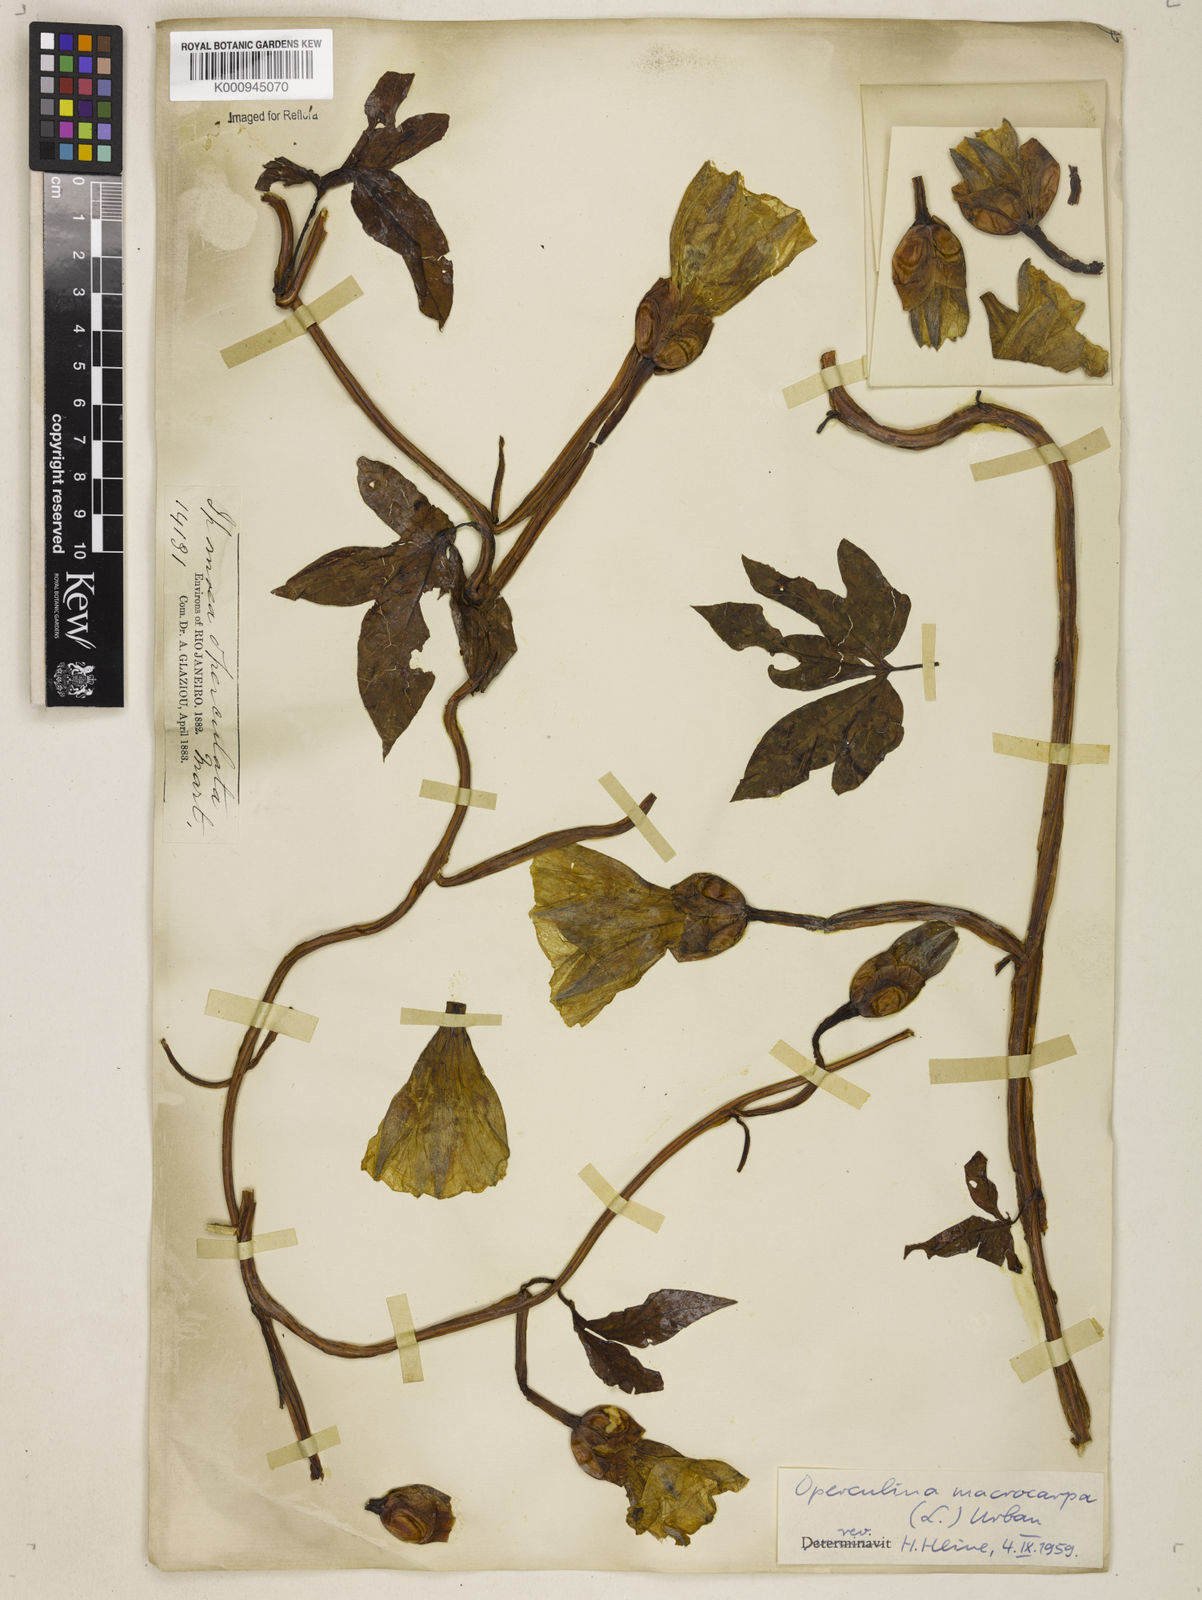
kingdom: Plantae
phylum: Tracheophyta
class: Magnoliopsida
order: Solanales
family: Convolvulaceae
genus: Operculina
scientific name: Operculina macrocarpa
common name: Brazilian jalap
